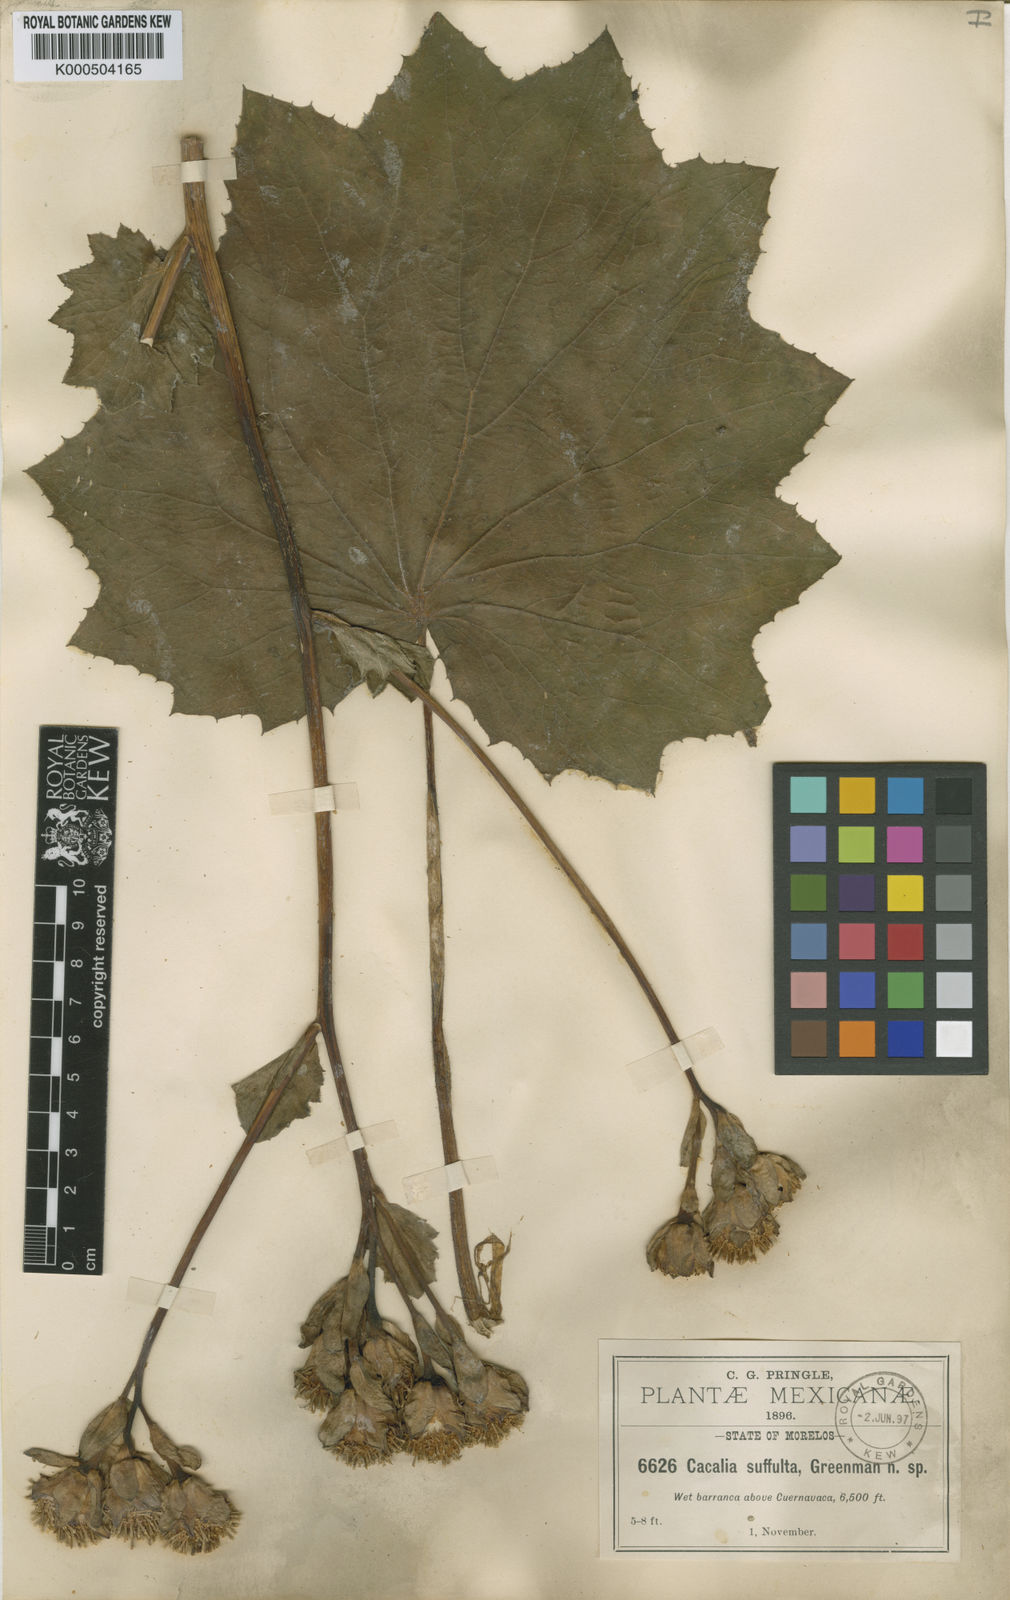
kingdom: Plantae
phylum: Tracheophyta
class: Magnoliopsida
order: Asterales
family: Asteraceae
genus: Roldana
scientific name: Roldana suffulta
